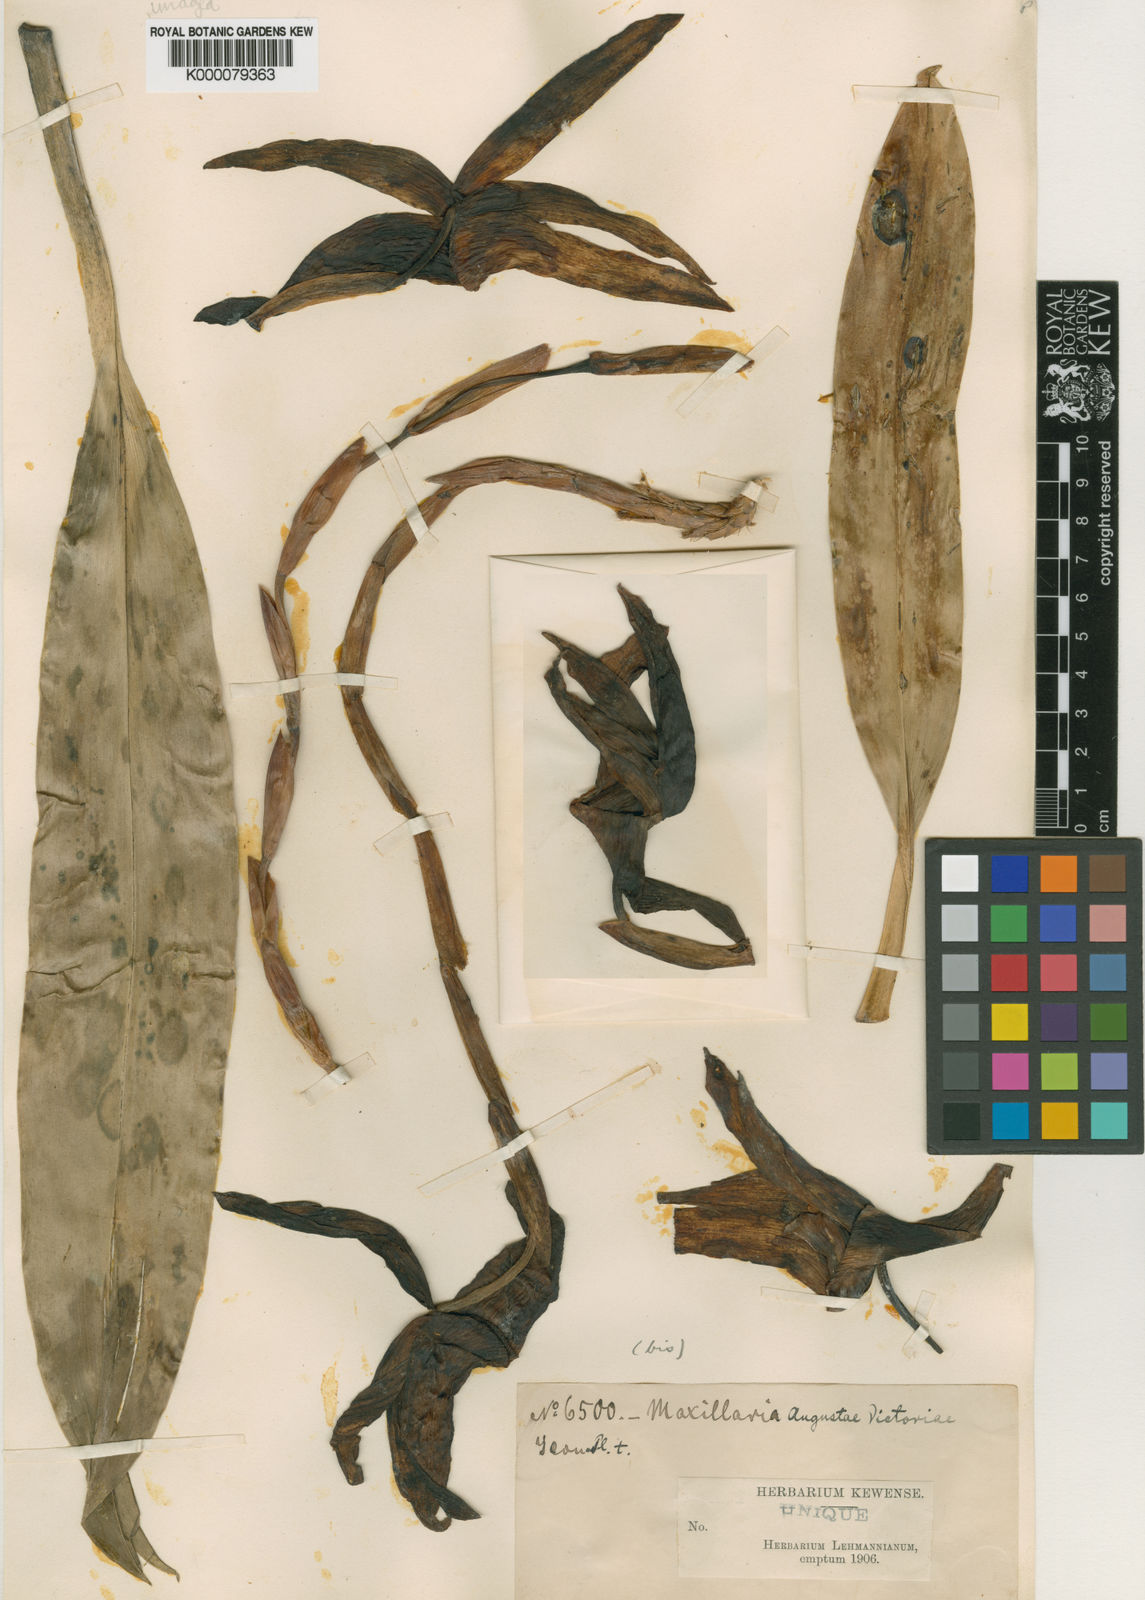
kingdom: Plantae
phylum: Tracheophyta
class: Liliopsida
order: Asparagales
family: Orchidaceae
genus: Maxillaria
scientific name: Maxillaria augustae-victoriae
